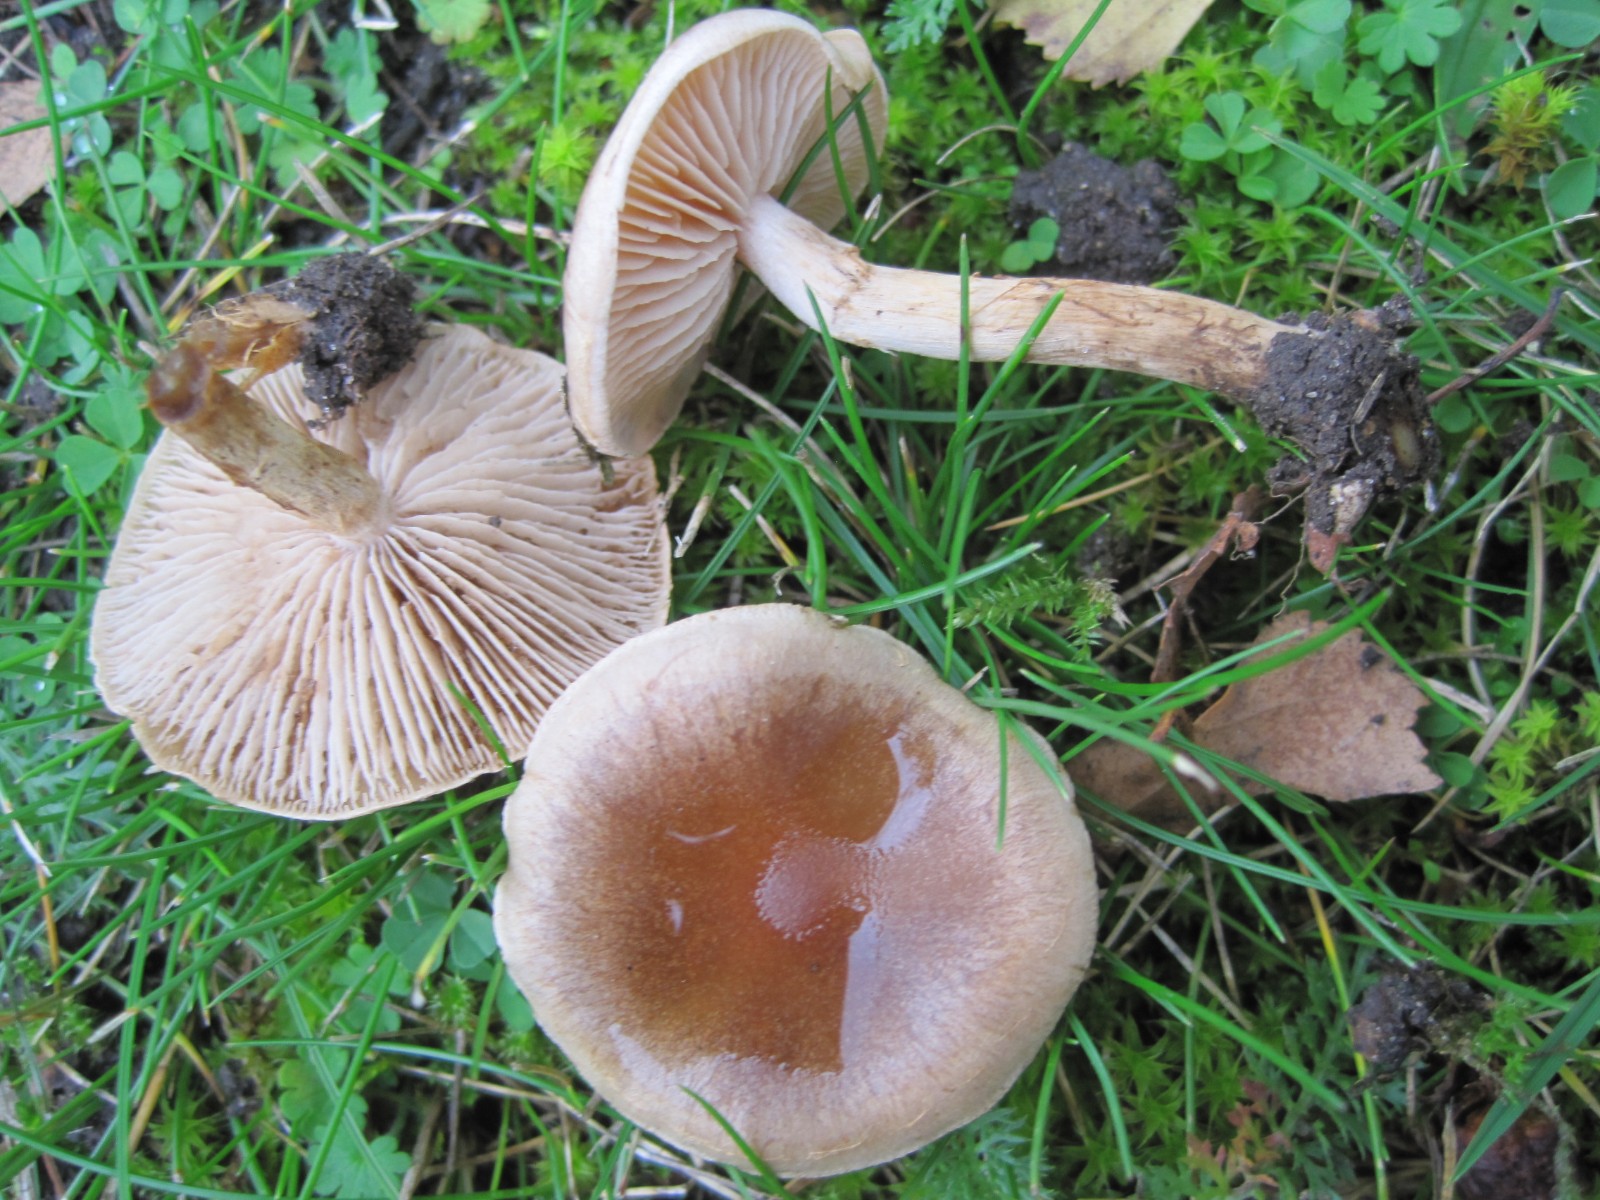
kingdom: Fungi
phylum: Basidiomycota
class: Agaricomycetes
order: Agaricales
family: Hymenogastraceae
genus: Hebeloma
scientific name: Hebeloma mesophaeum
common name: lerbrun tåreblad
